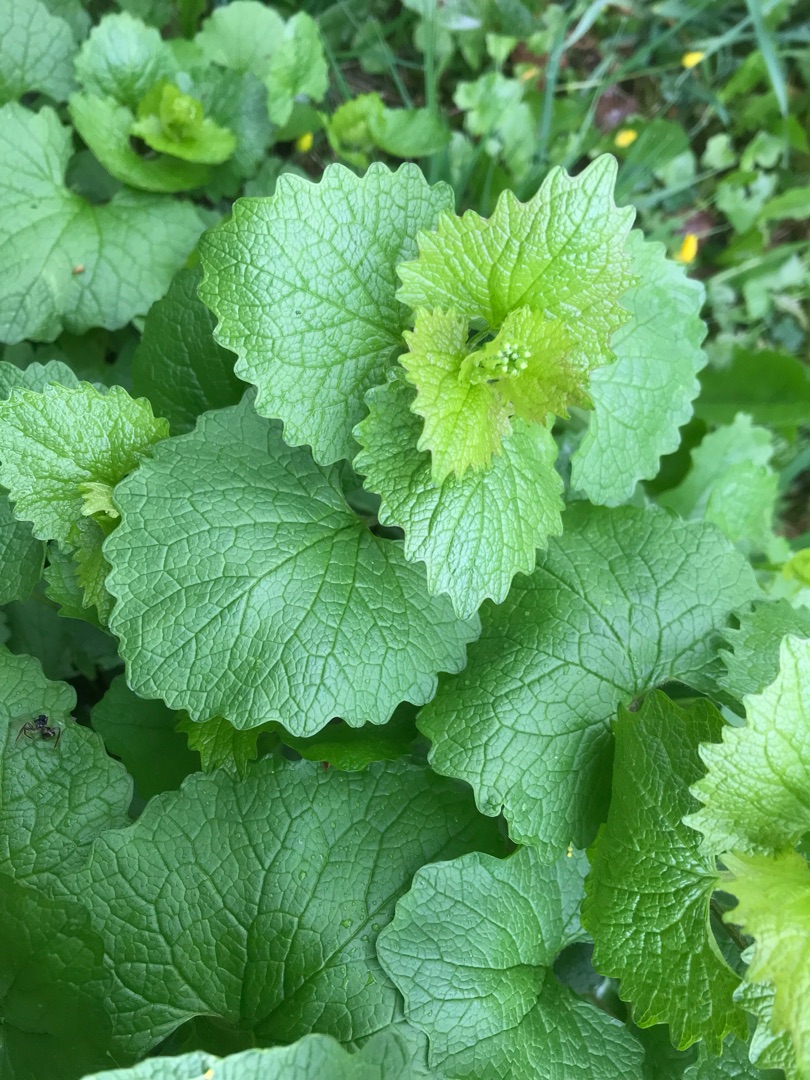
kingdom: Plantae
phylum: Tracheophyta
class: Magnoliopsida
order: Brassicales
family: Brassicaceae
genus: Alliaria
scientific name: Alliaria petiolata
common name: Løgkarse
